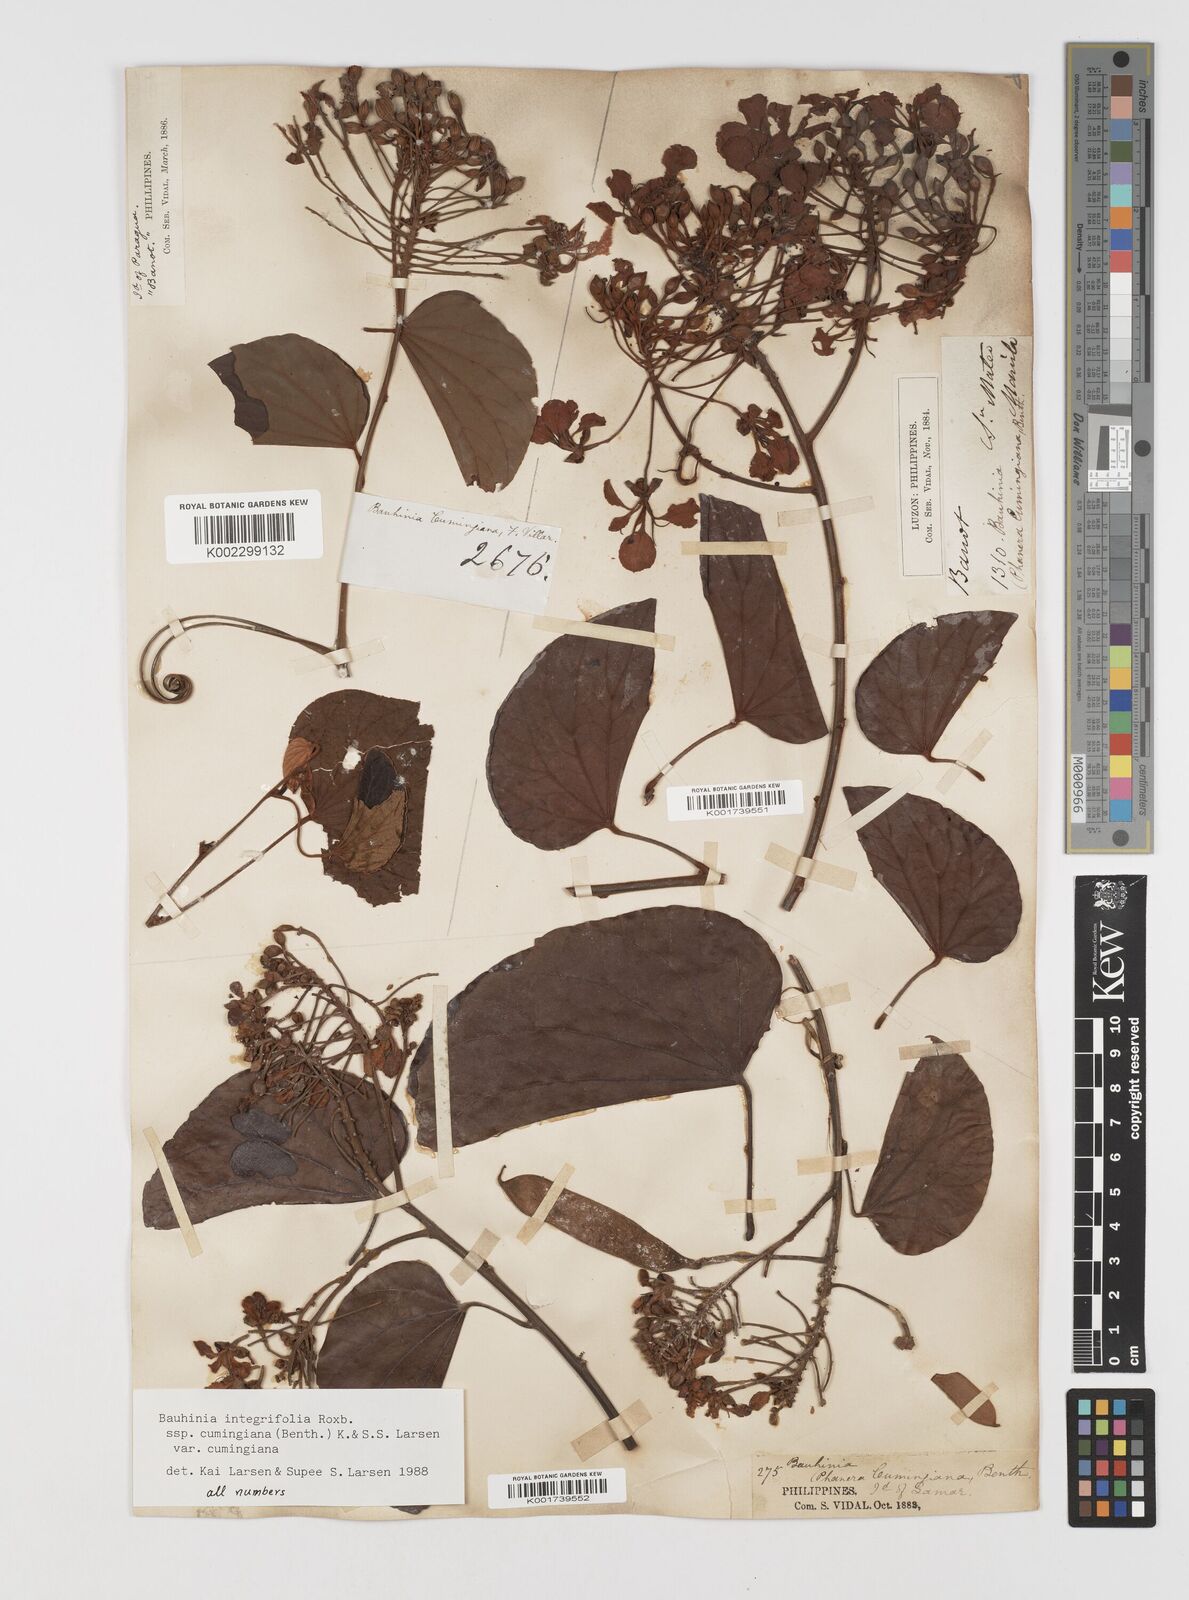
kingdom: Plantae
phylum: Tracheophyta
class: Magnoliopsida
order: Fabales
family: Fabaceae
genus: Phanera
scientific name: Phanera integrifolia
